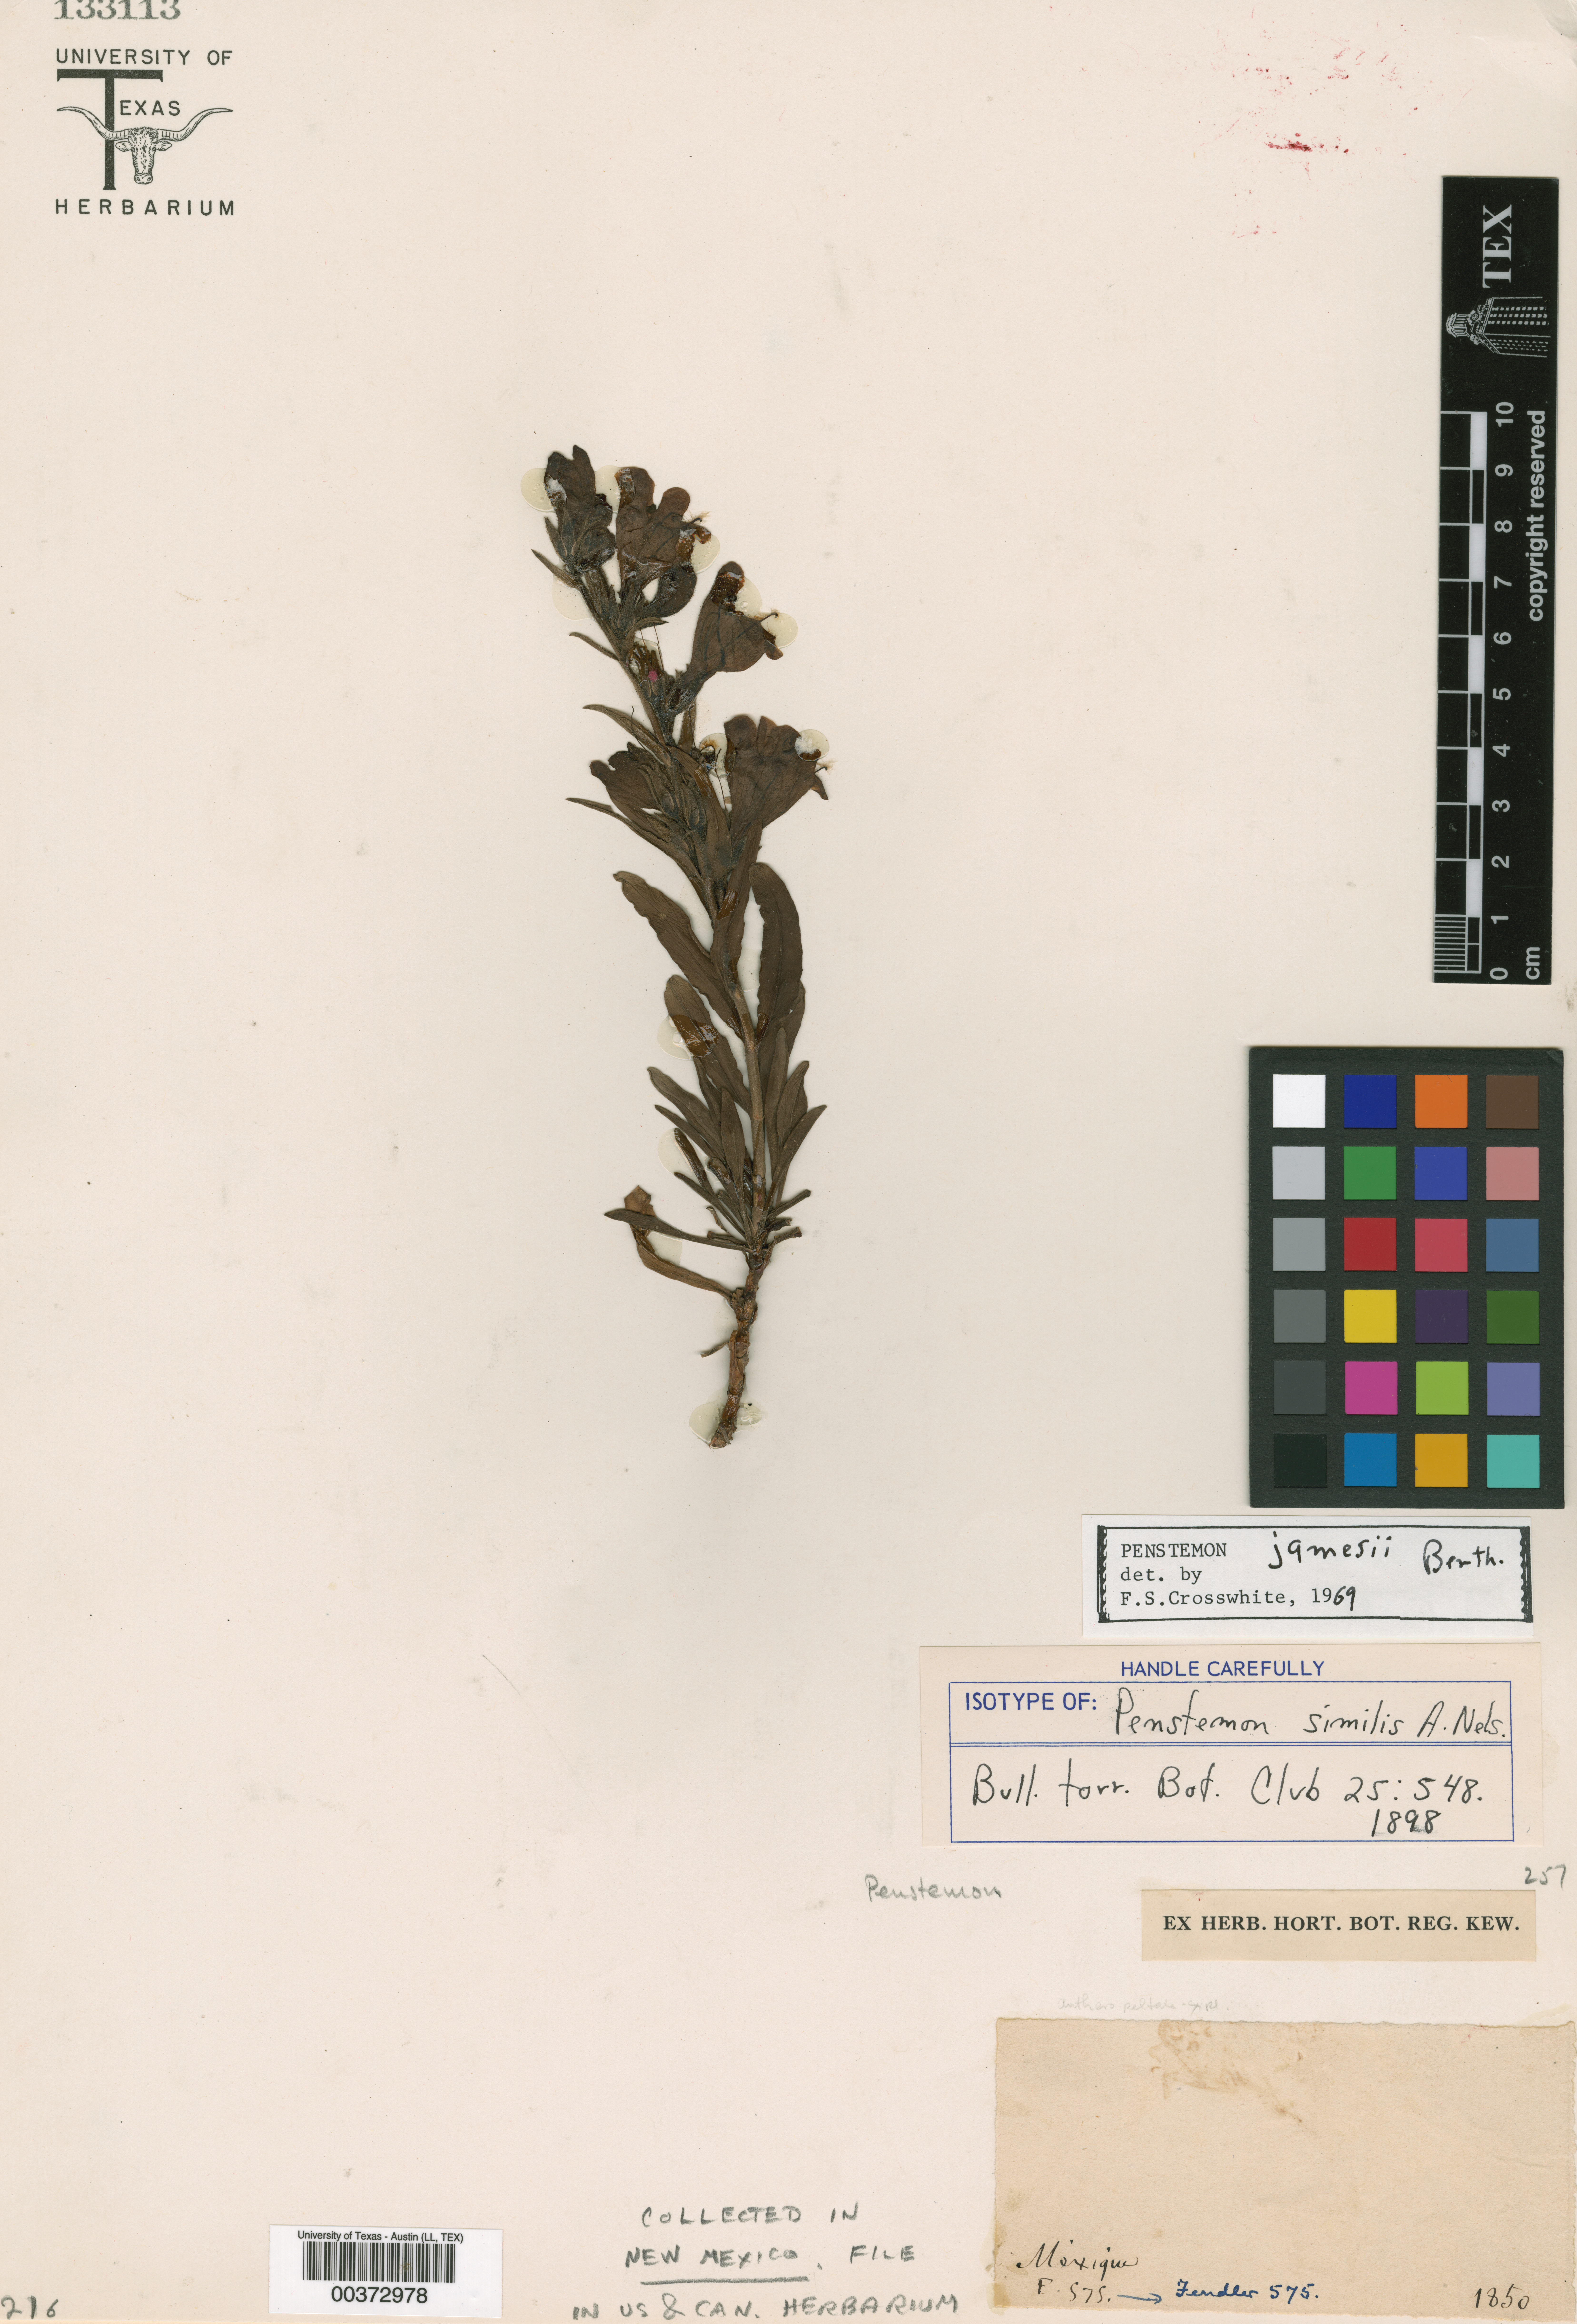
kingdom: Plantae
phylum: Tracheophyta
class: Magnoliopsida
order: Lamiales
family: Plantaginaceae
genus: Penstemon
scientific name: Penstemon jamesii
